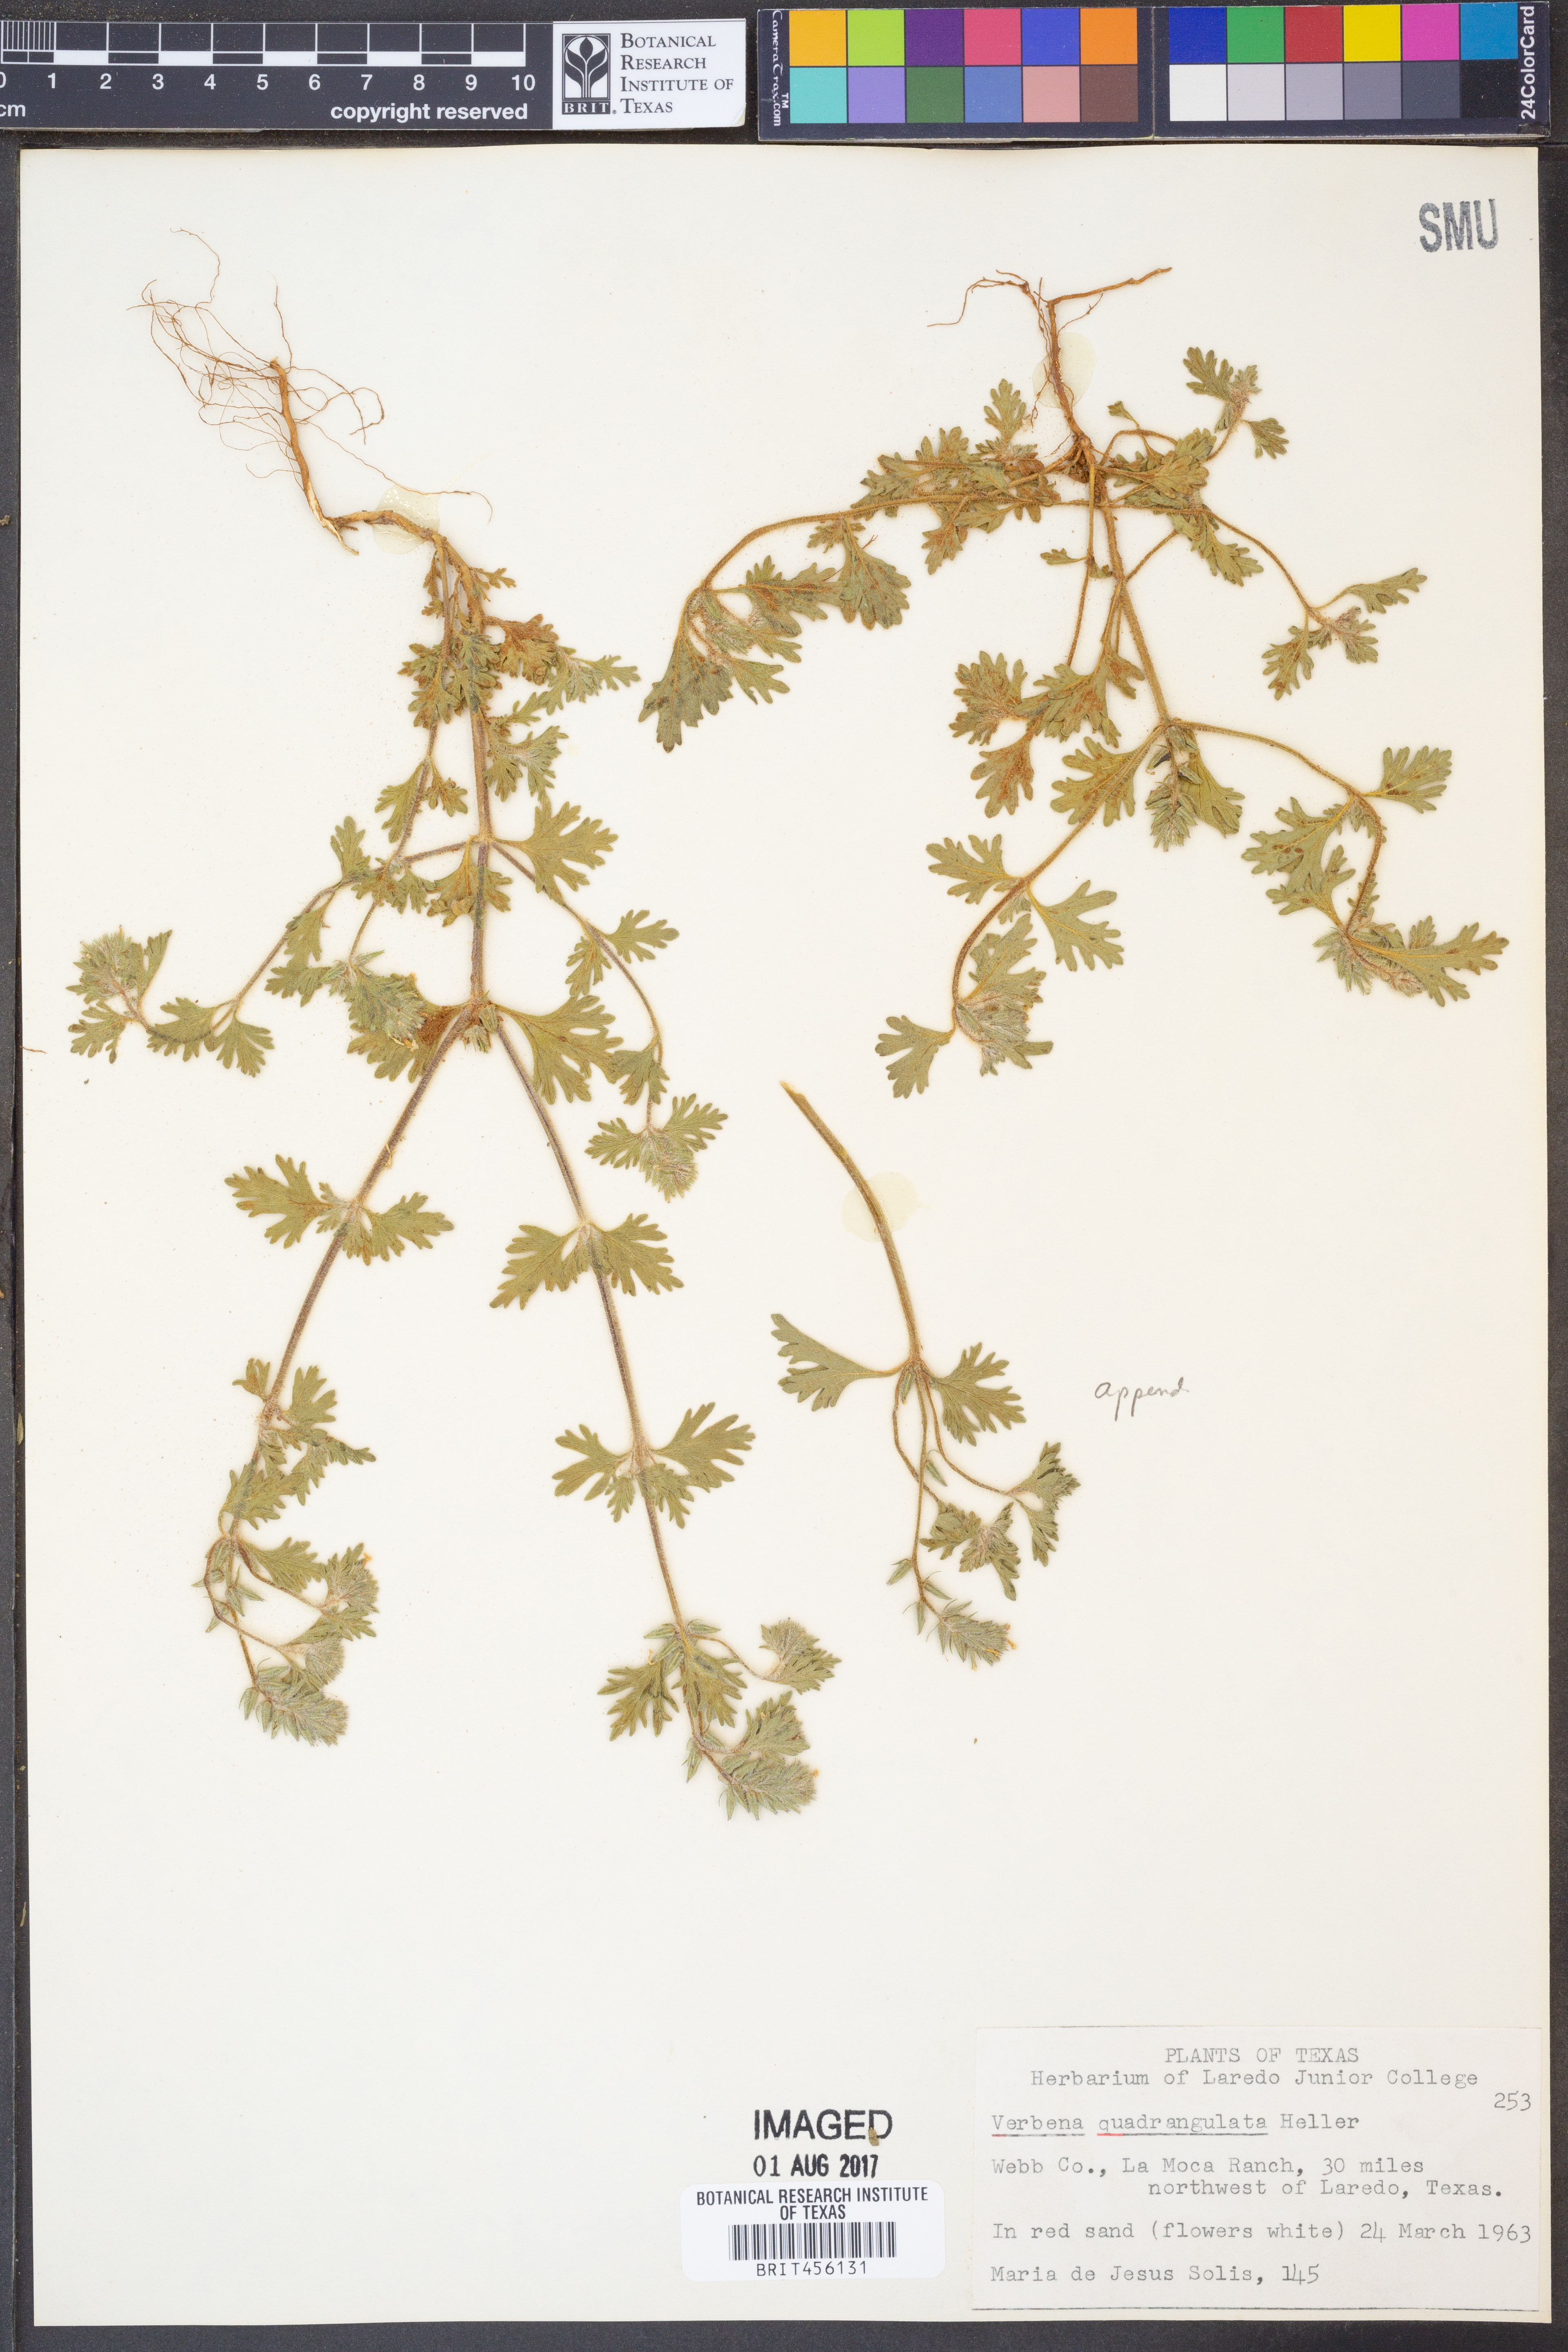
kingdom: Plantae
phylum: Tracheophyta
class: Magnoliopsida
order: Lamiales
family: Verbenaceae
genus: Verbena
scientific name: Verbena quadrangulata
